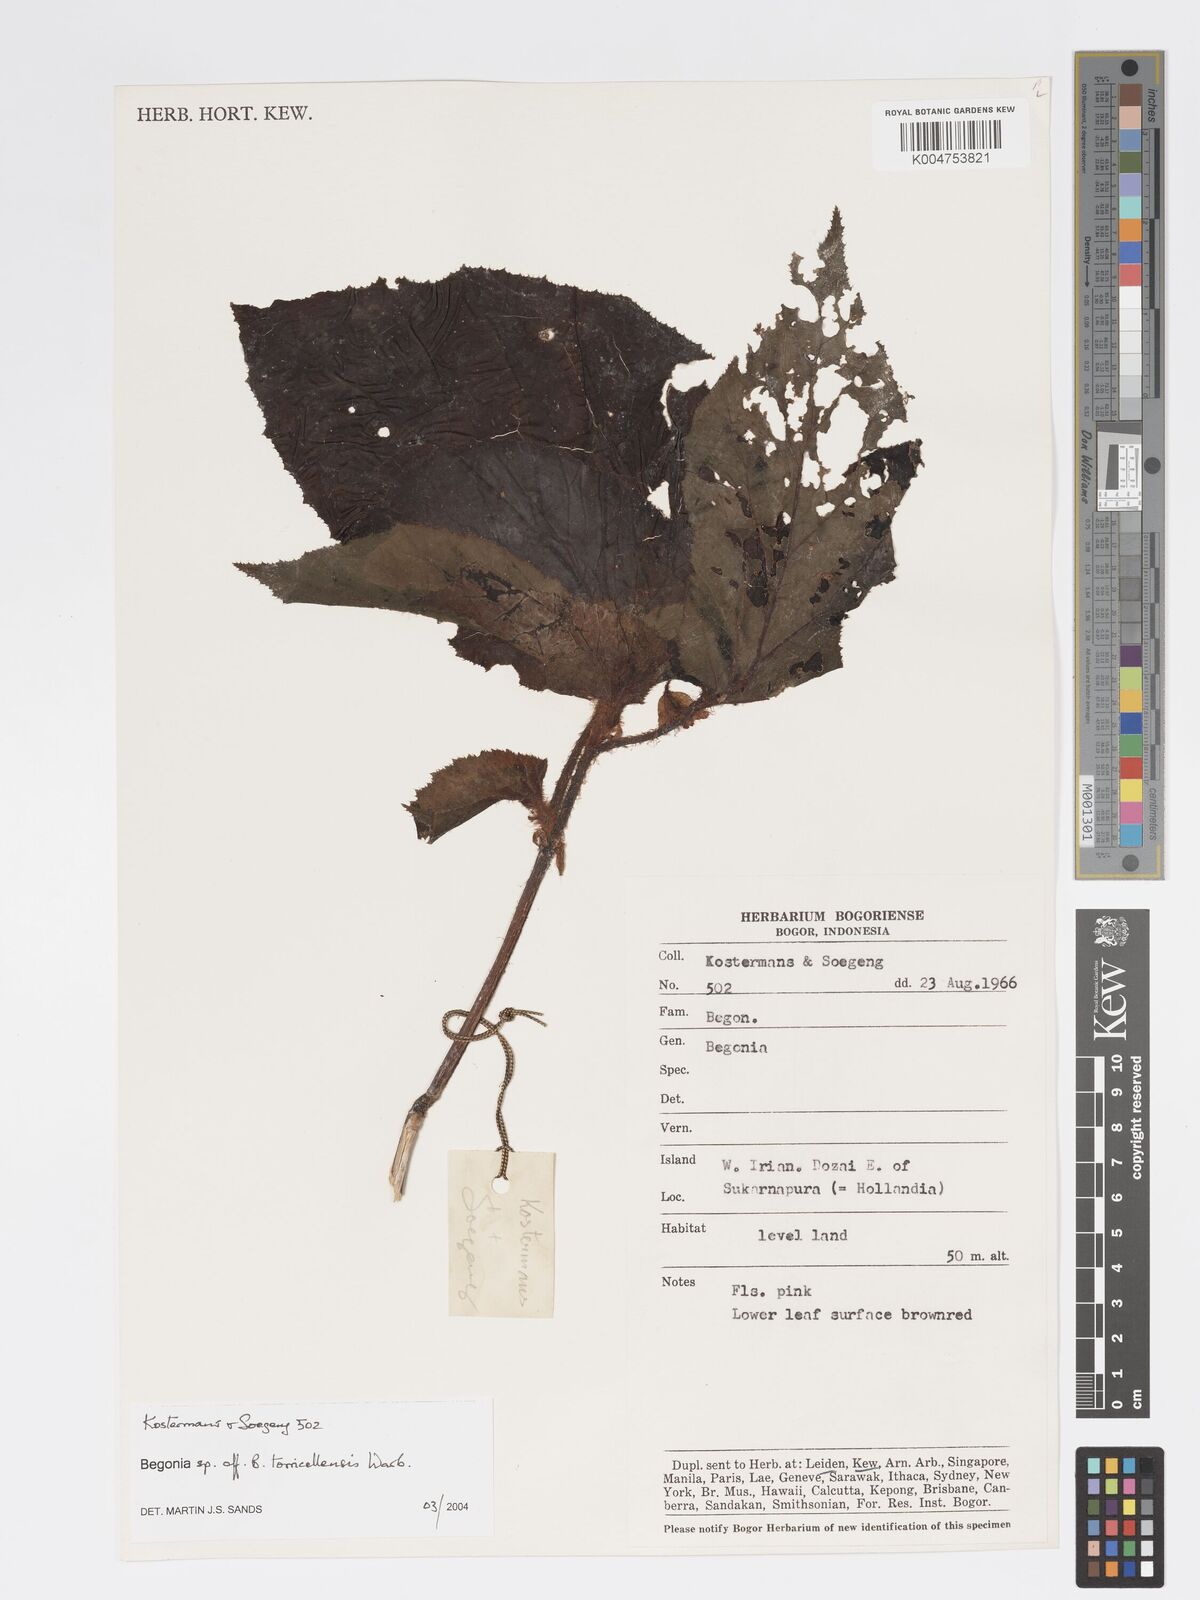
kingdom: Plantae
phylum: Tracheophyta
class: Magnoliopsida
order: Cucurbitales
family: Begoniaceae
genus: Begonia
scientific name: Begonia torricellensis
